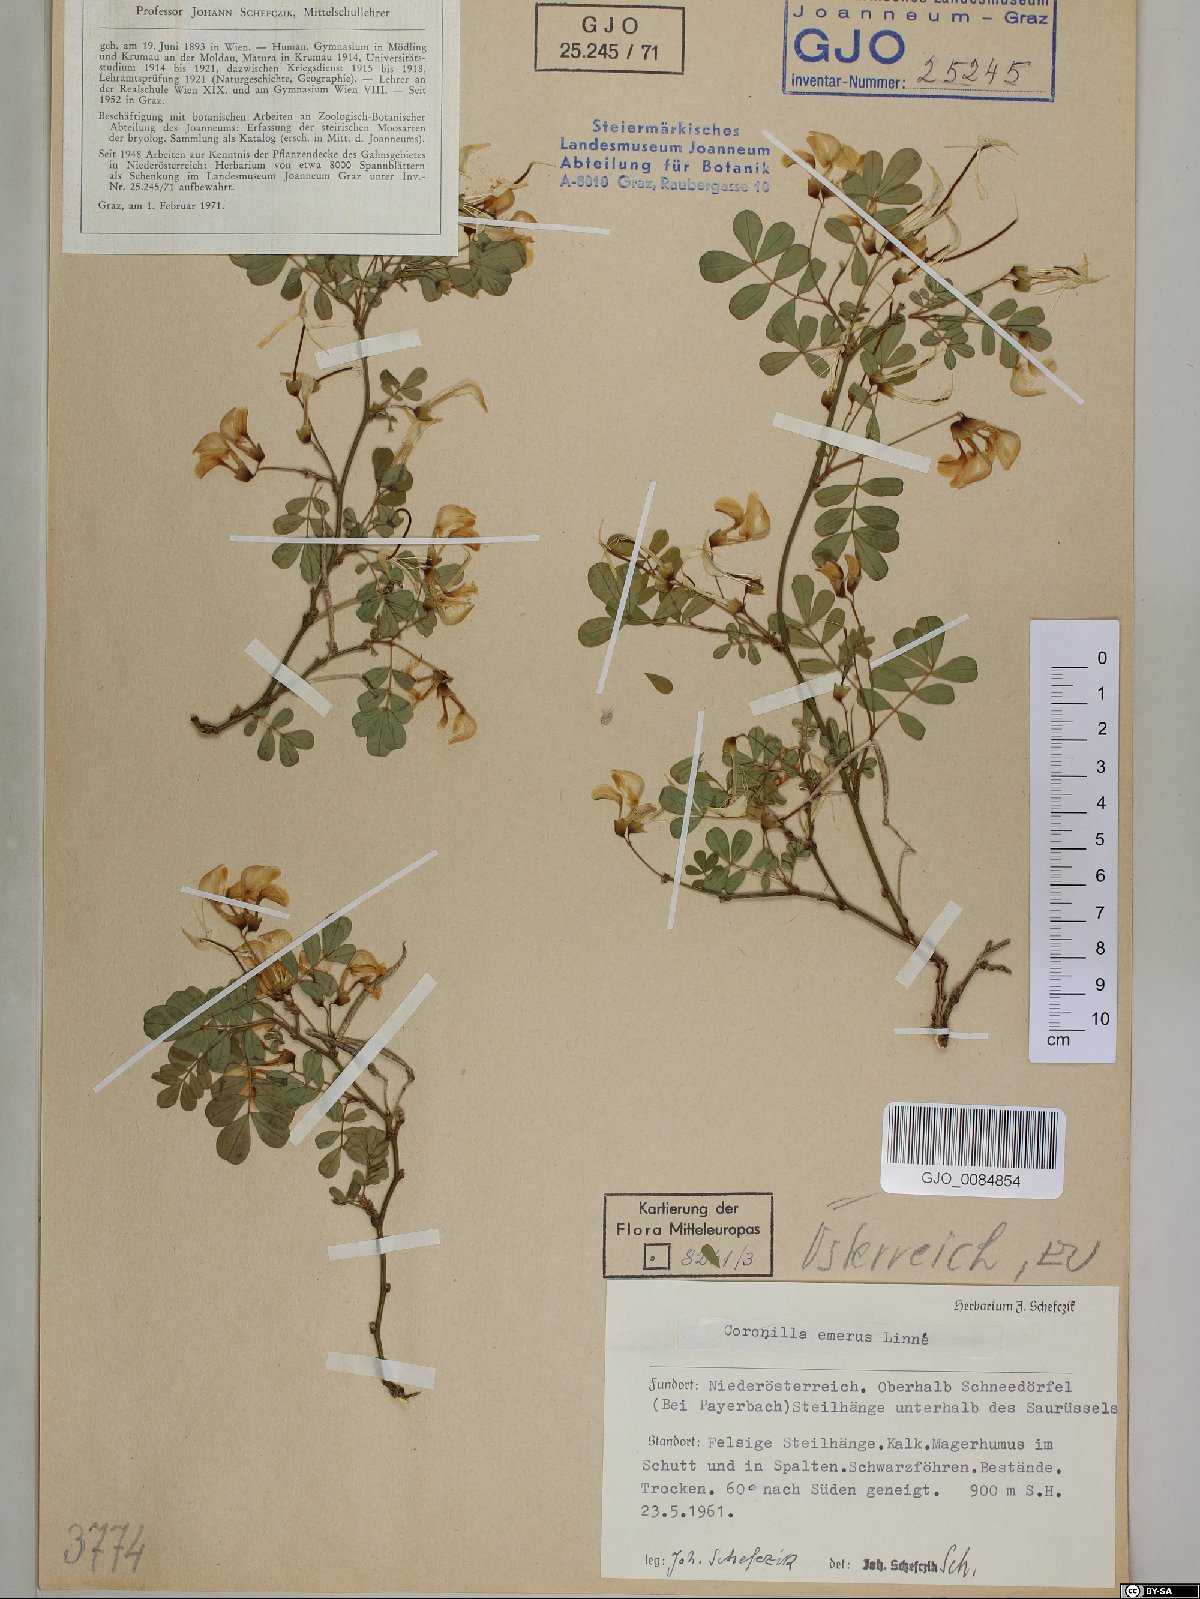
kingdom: Plantae
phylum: Tracheophyta
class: Magnoliopsida
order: Fabales
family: Fabaceae
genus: Hippocrepis
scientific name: Hippocrepis emerus
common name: Scorpion senna
